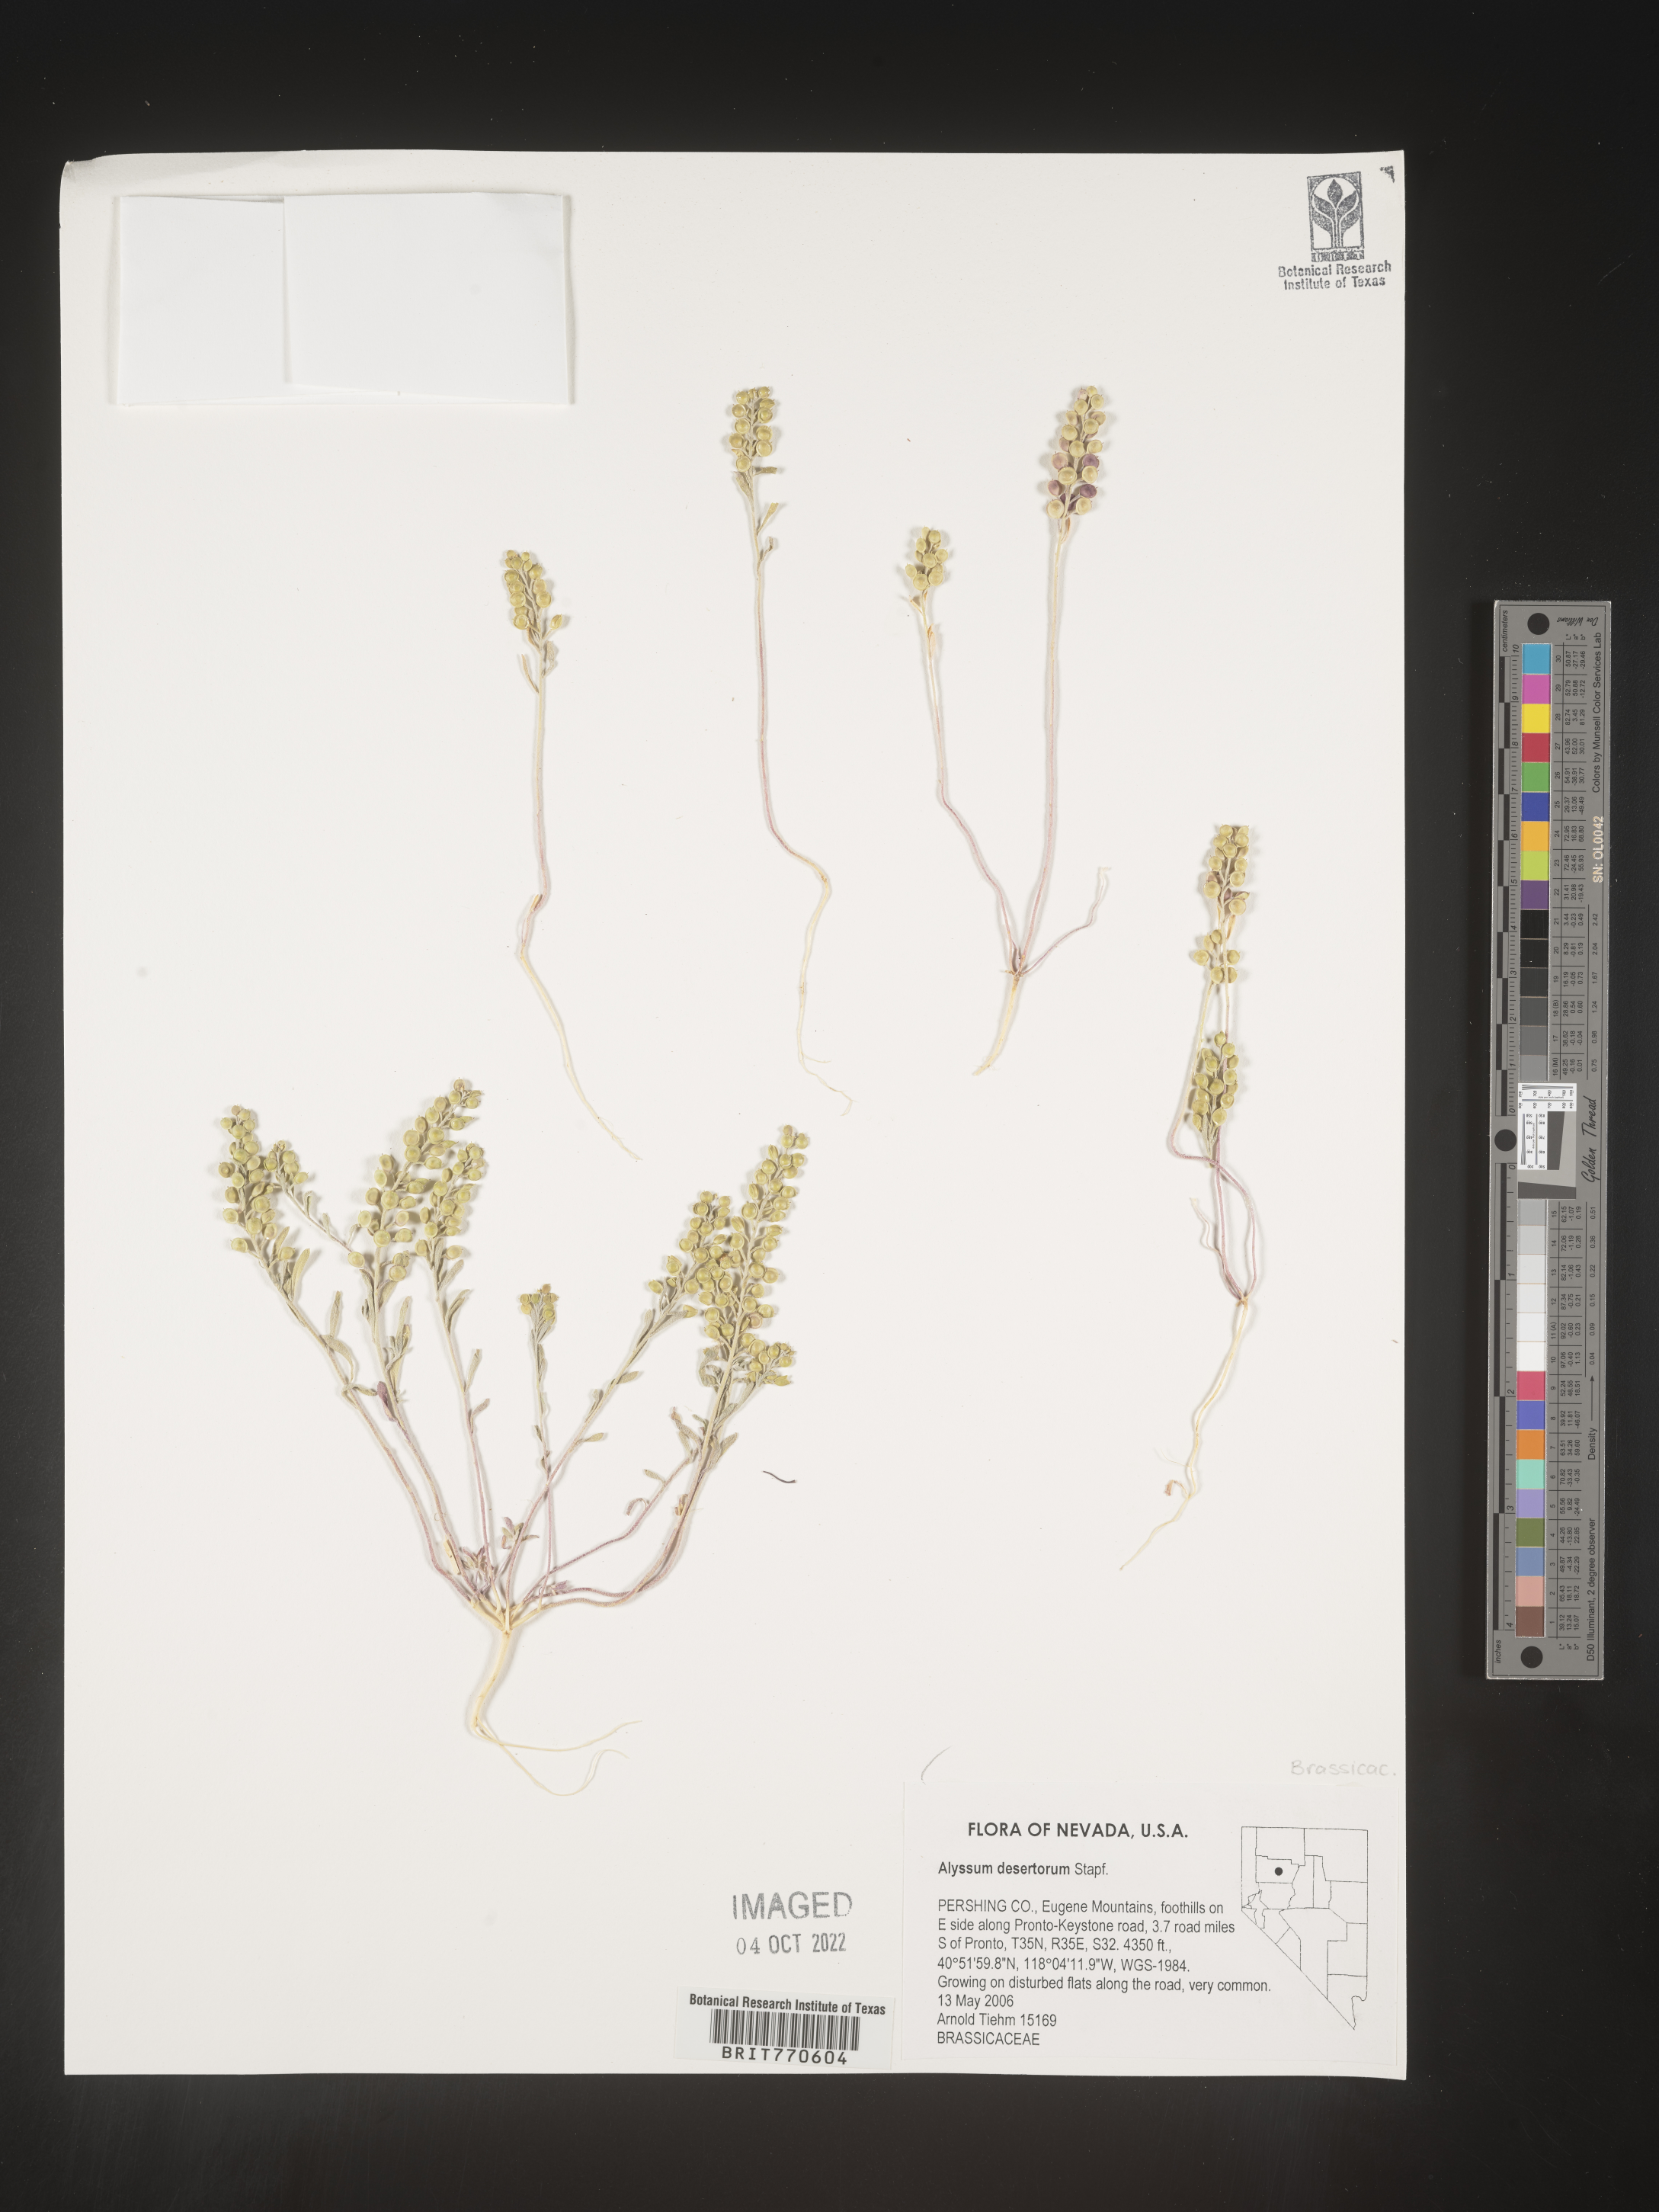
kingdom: Plantae
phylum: Tracheophyta
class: Magnoliopsida
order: Brassicales
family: Brassicaceae
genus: Alyssum
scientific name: Alyssum turkestanicum
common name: Desert alyssum
